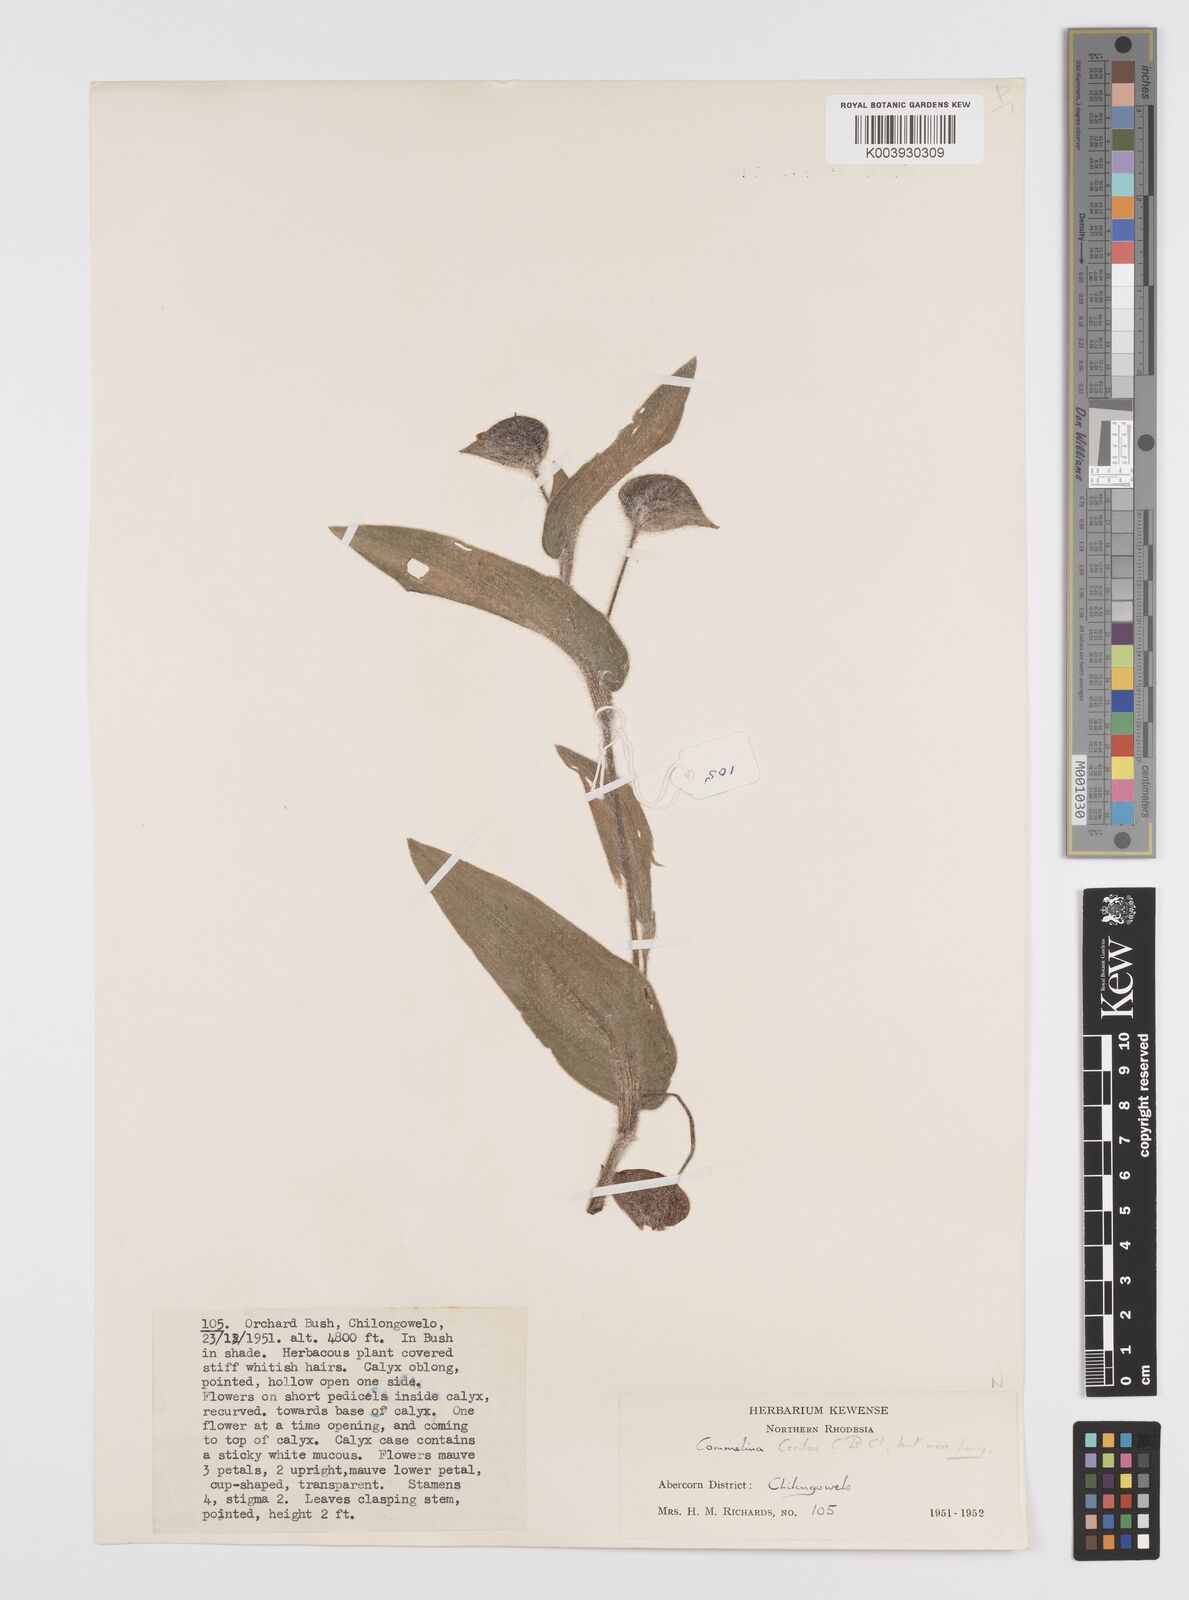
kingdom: Plantae
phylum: Tracheophyta
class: Liliopsida
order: Commelinales
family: Commelinaceae
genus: Commelina
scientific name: Commelina cecilae
